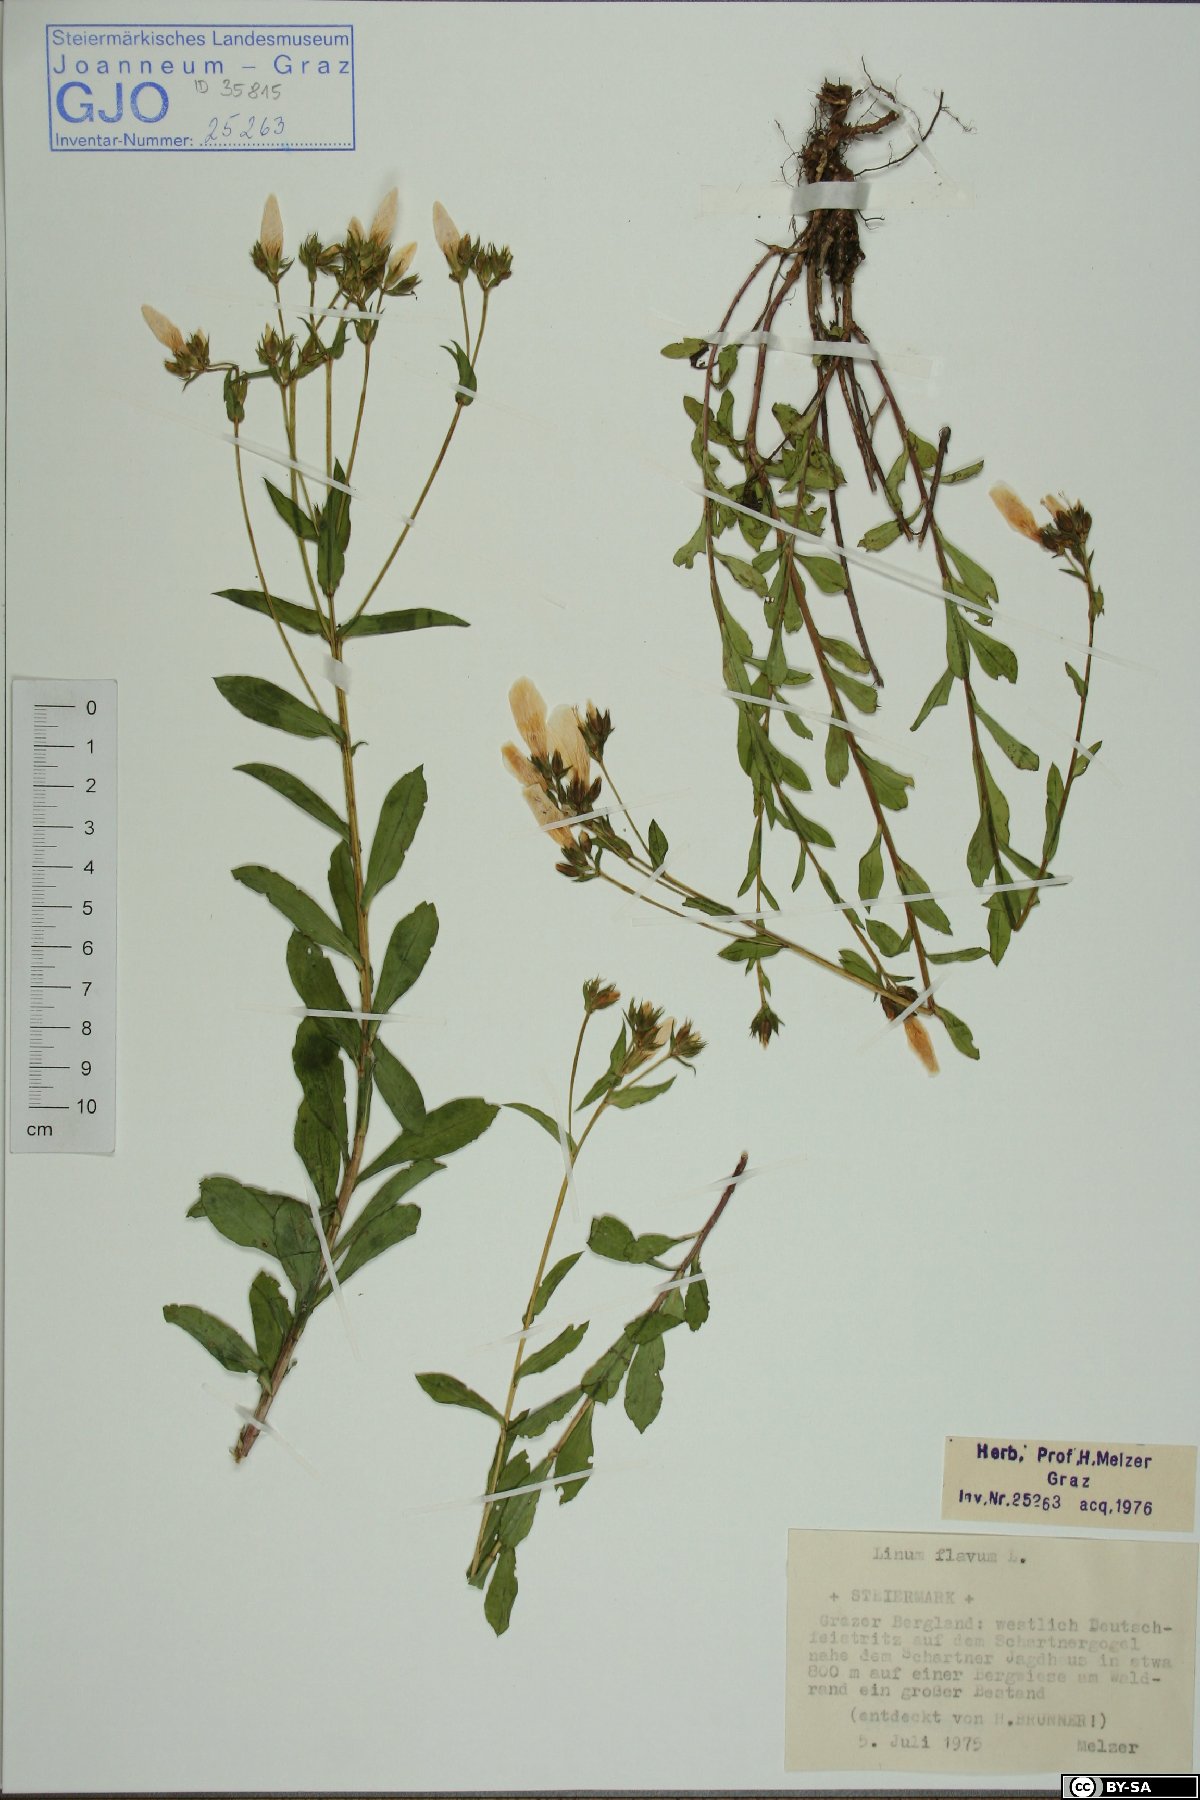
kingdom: Plantae
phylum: Tracheophyta
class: Magnoliopsida
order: Malpighiales
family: Linaceae
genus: Linum
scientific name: Linum flavum
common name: Yellow flax
